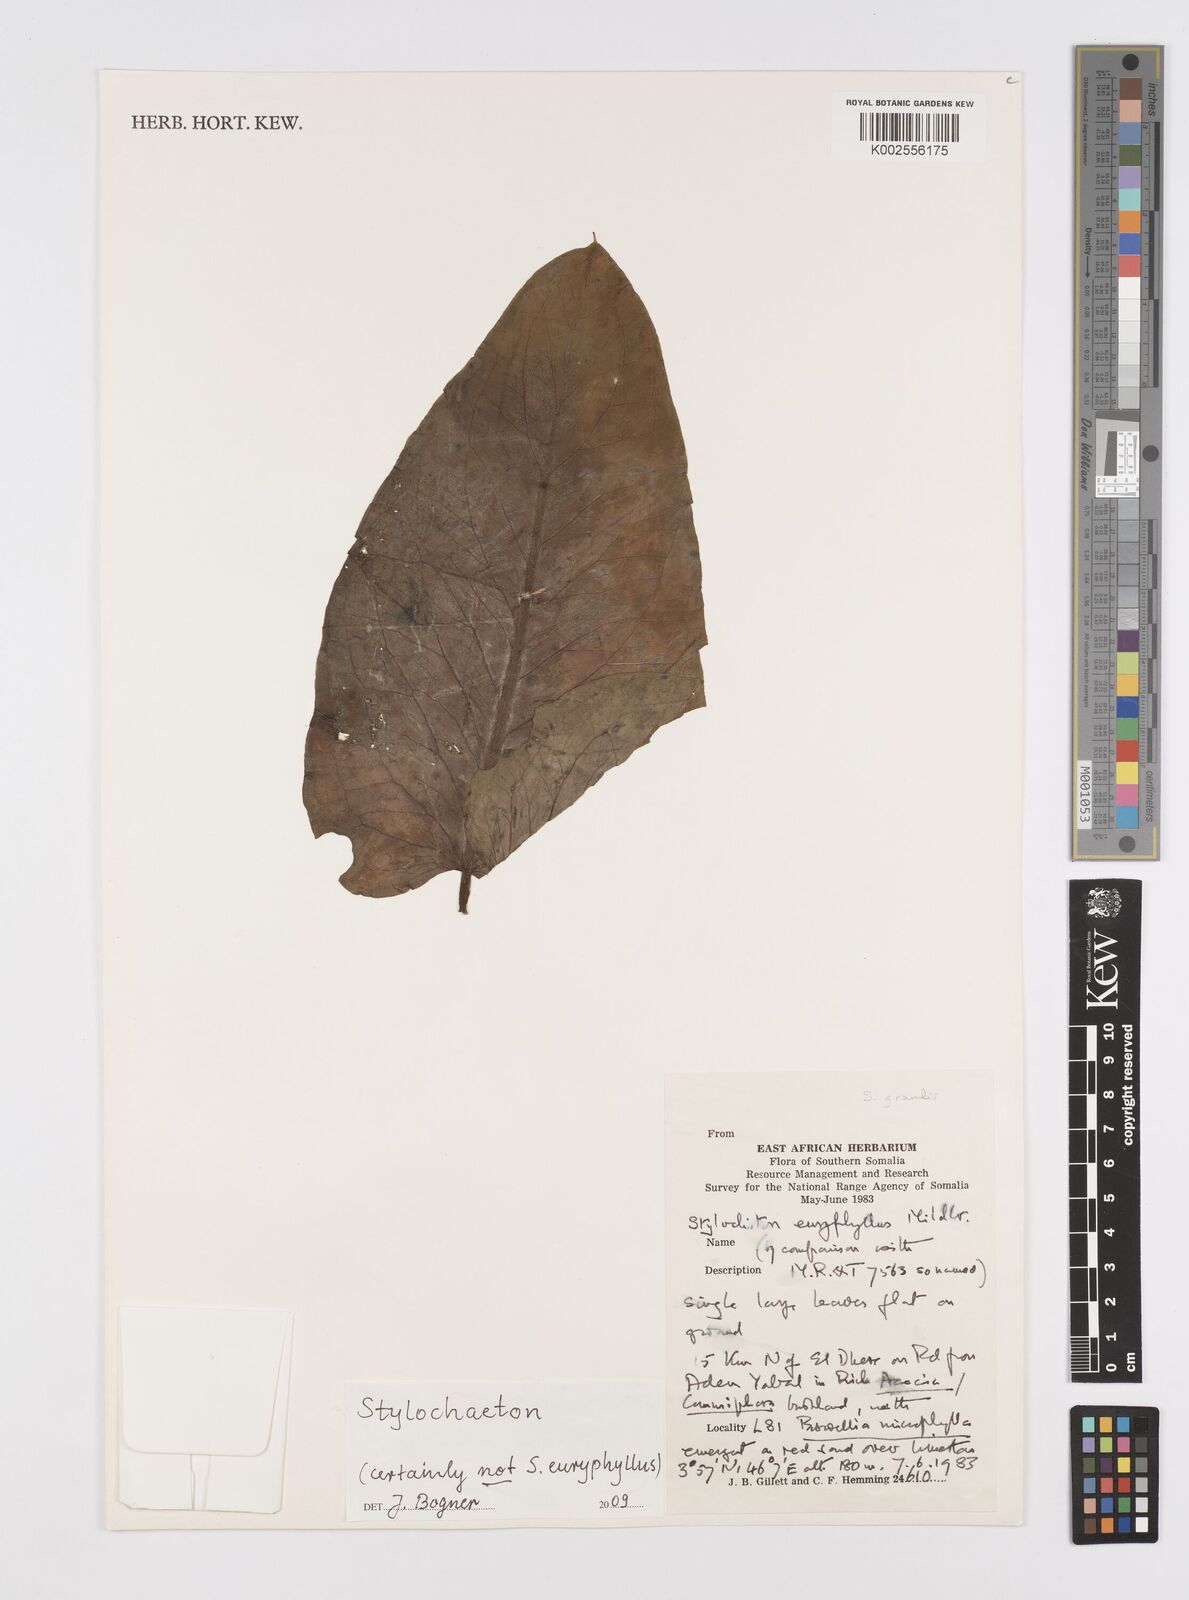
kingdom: Plantae
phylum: Tracheophyta
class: Liliopsida
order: Alismatales
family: Araceae
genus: Stylochaeton
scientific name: Stylochaeton
